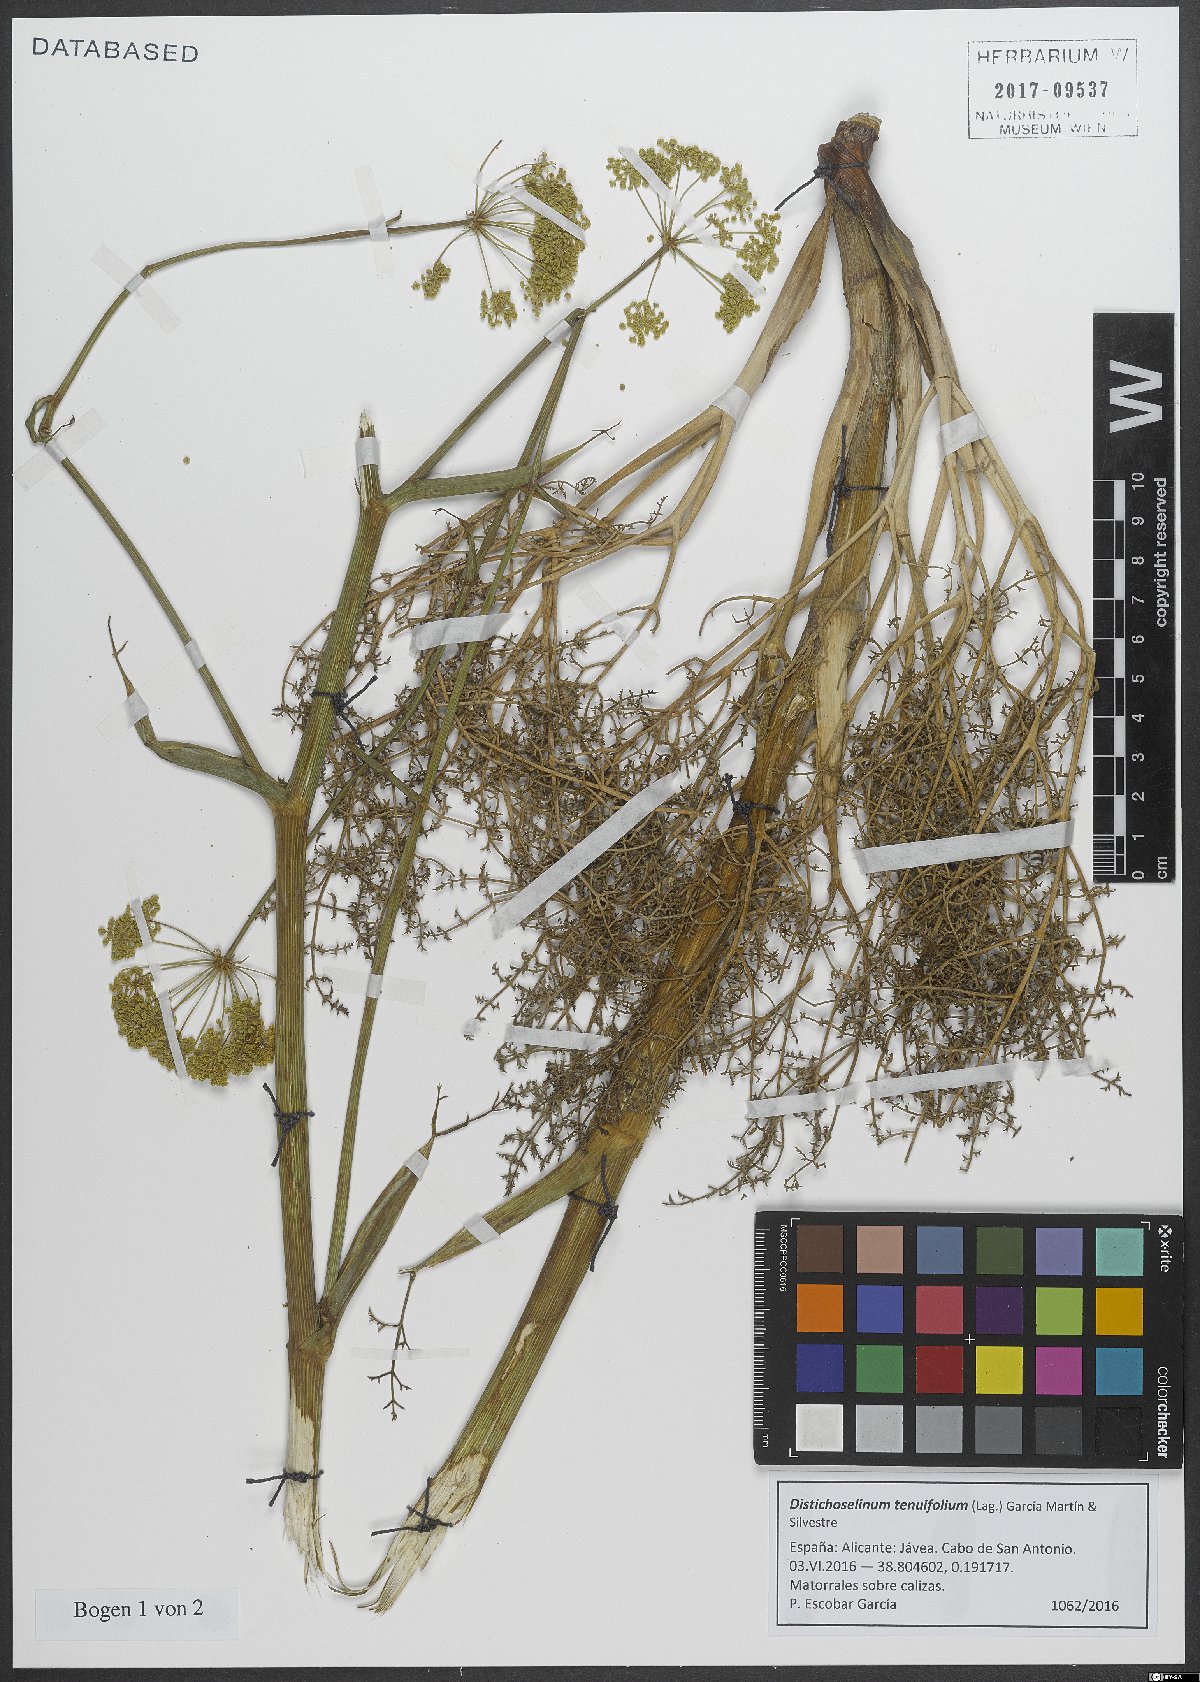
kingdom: Plantae
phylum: Tracheophyta
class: Magnoliopsida
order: Apiales
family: Apiaceae
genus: Thapsia
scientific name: Thapsia tenuifolia
